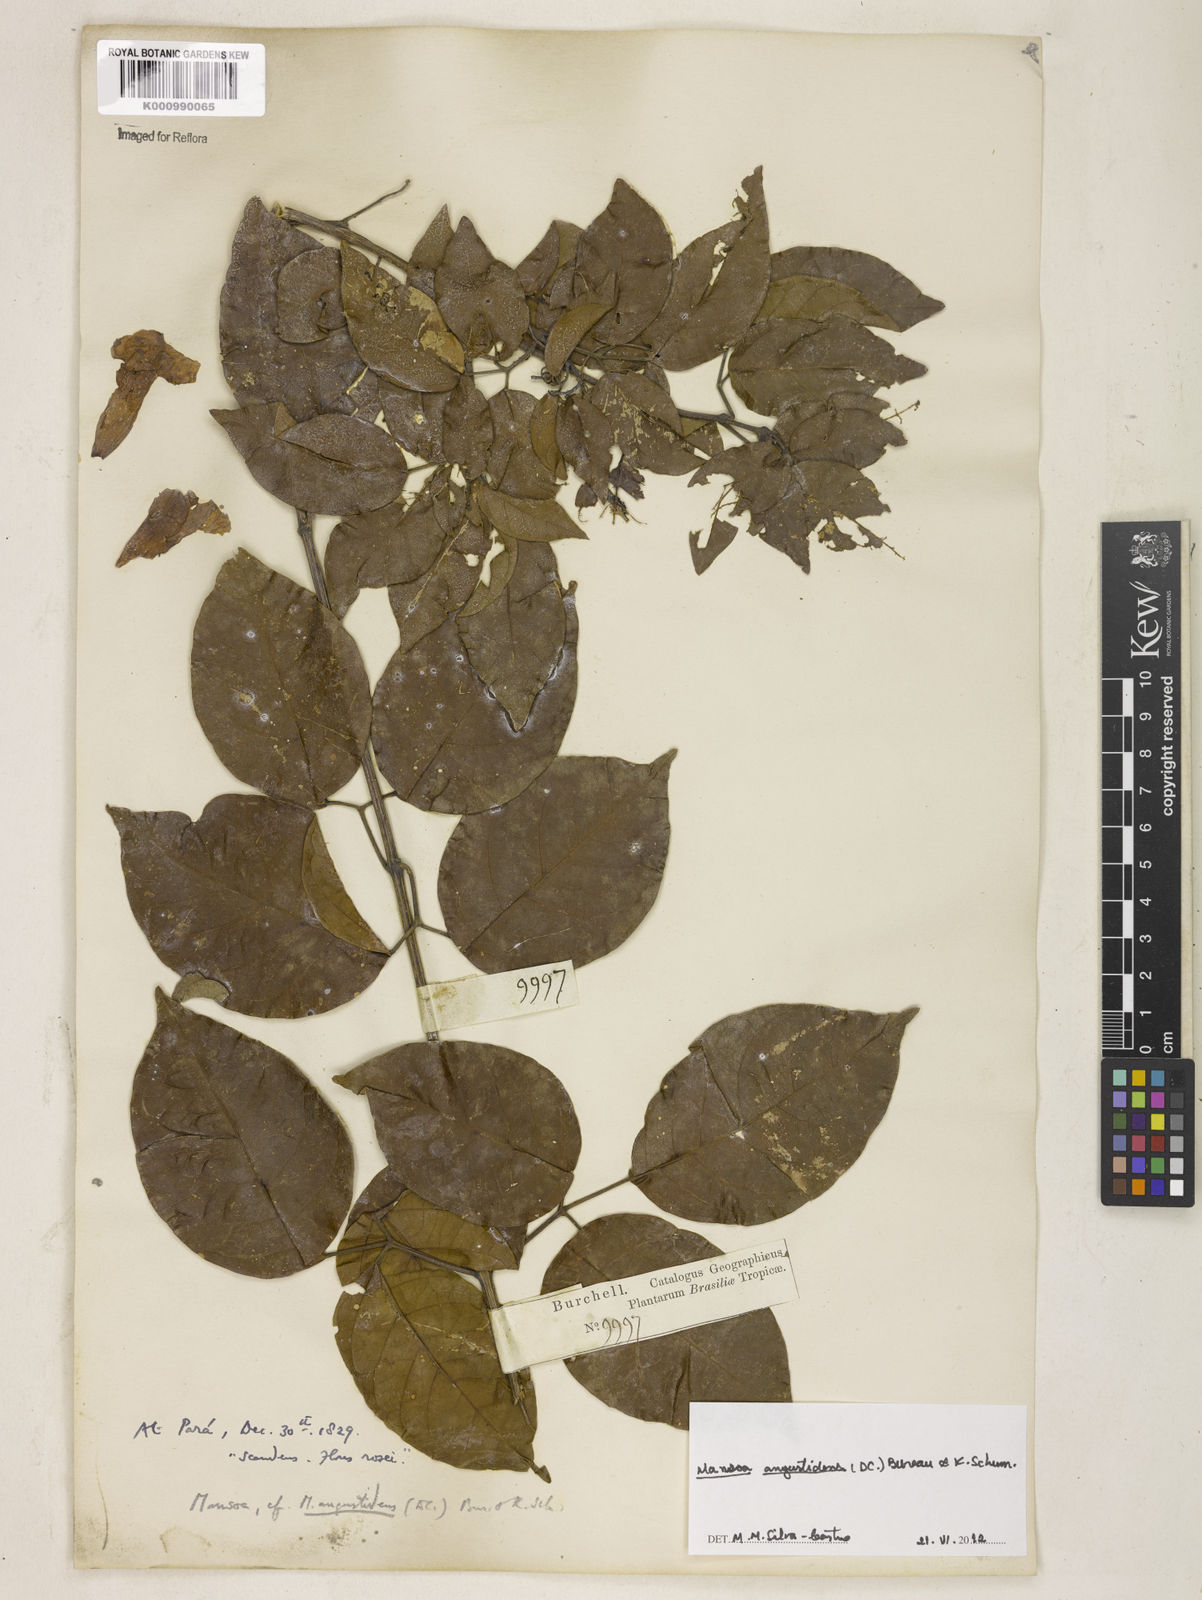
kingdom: Plantae
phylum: Tracheophyta
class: Magnoliopsida
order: Lamiales
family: Bignoniaceae
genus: Mansoa
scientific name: Mansoa angustidens
